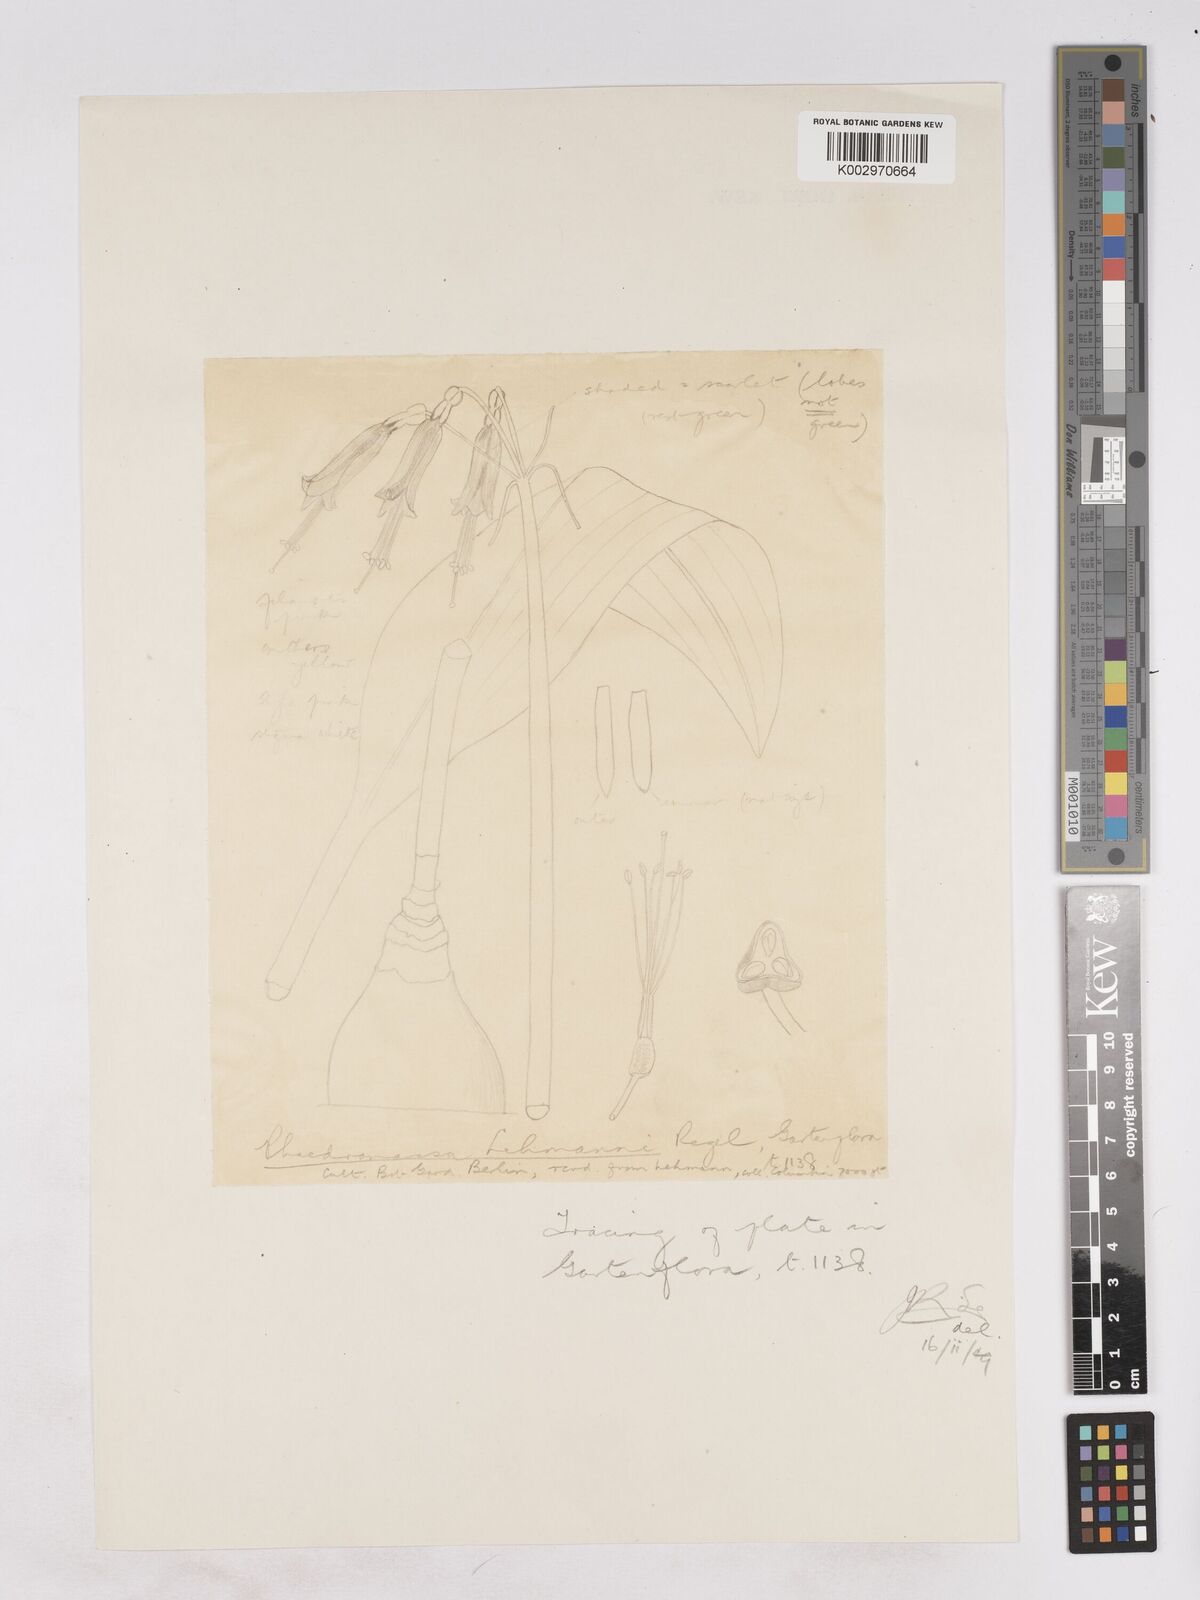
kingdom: Plantae
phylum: Tracheophyta
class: Liliopsida
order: Asparagales
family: Amaryllidaceae
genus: Phaedranassa
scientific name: Phaedranassa lehmannii
